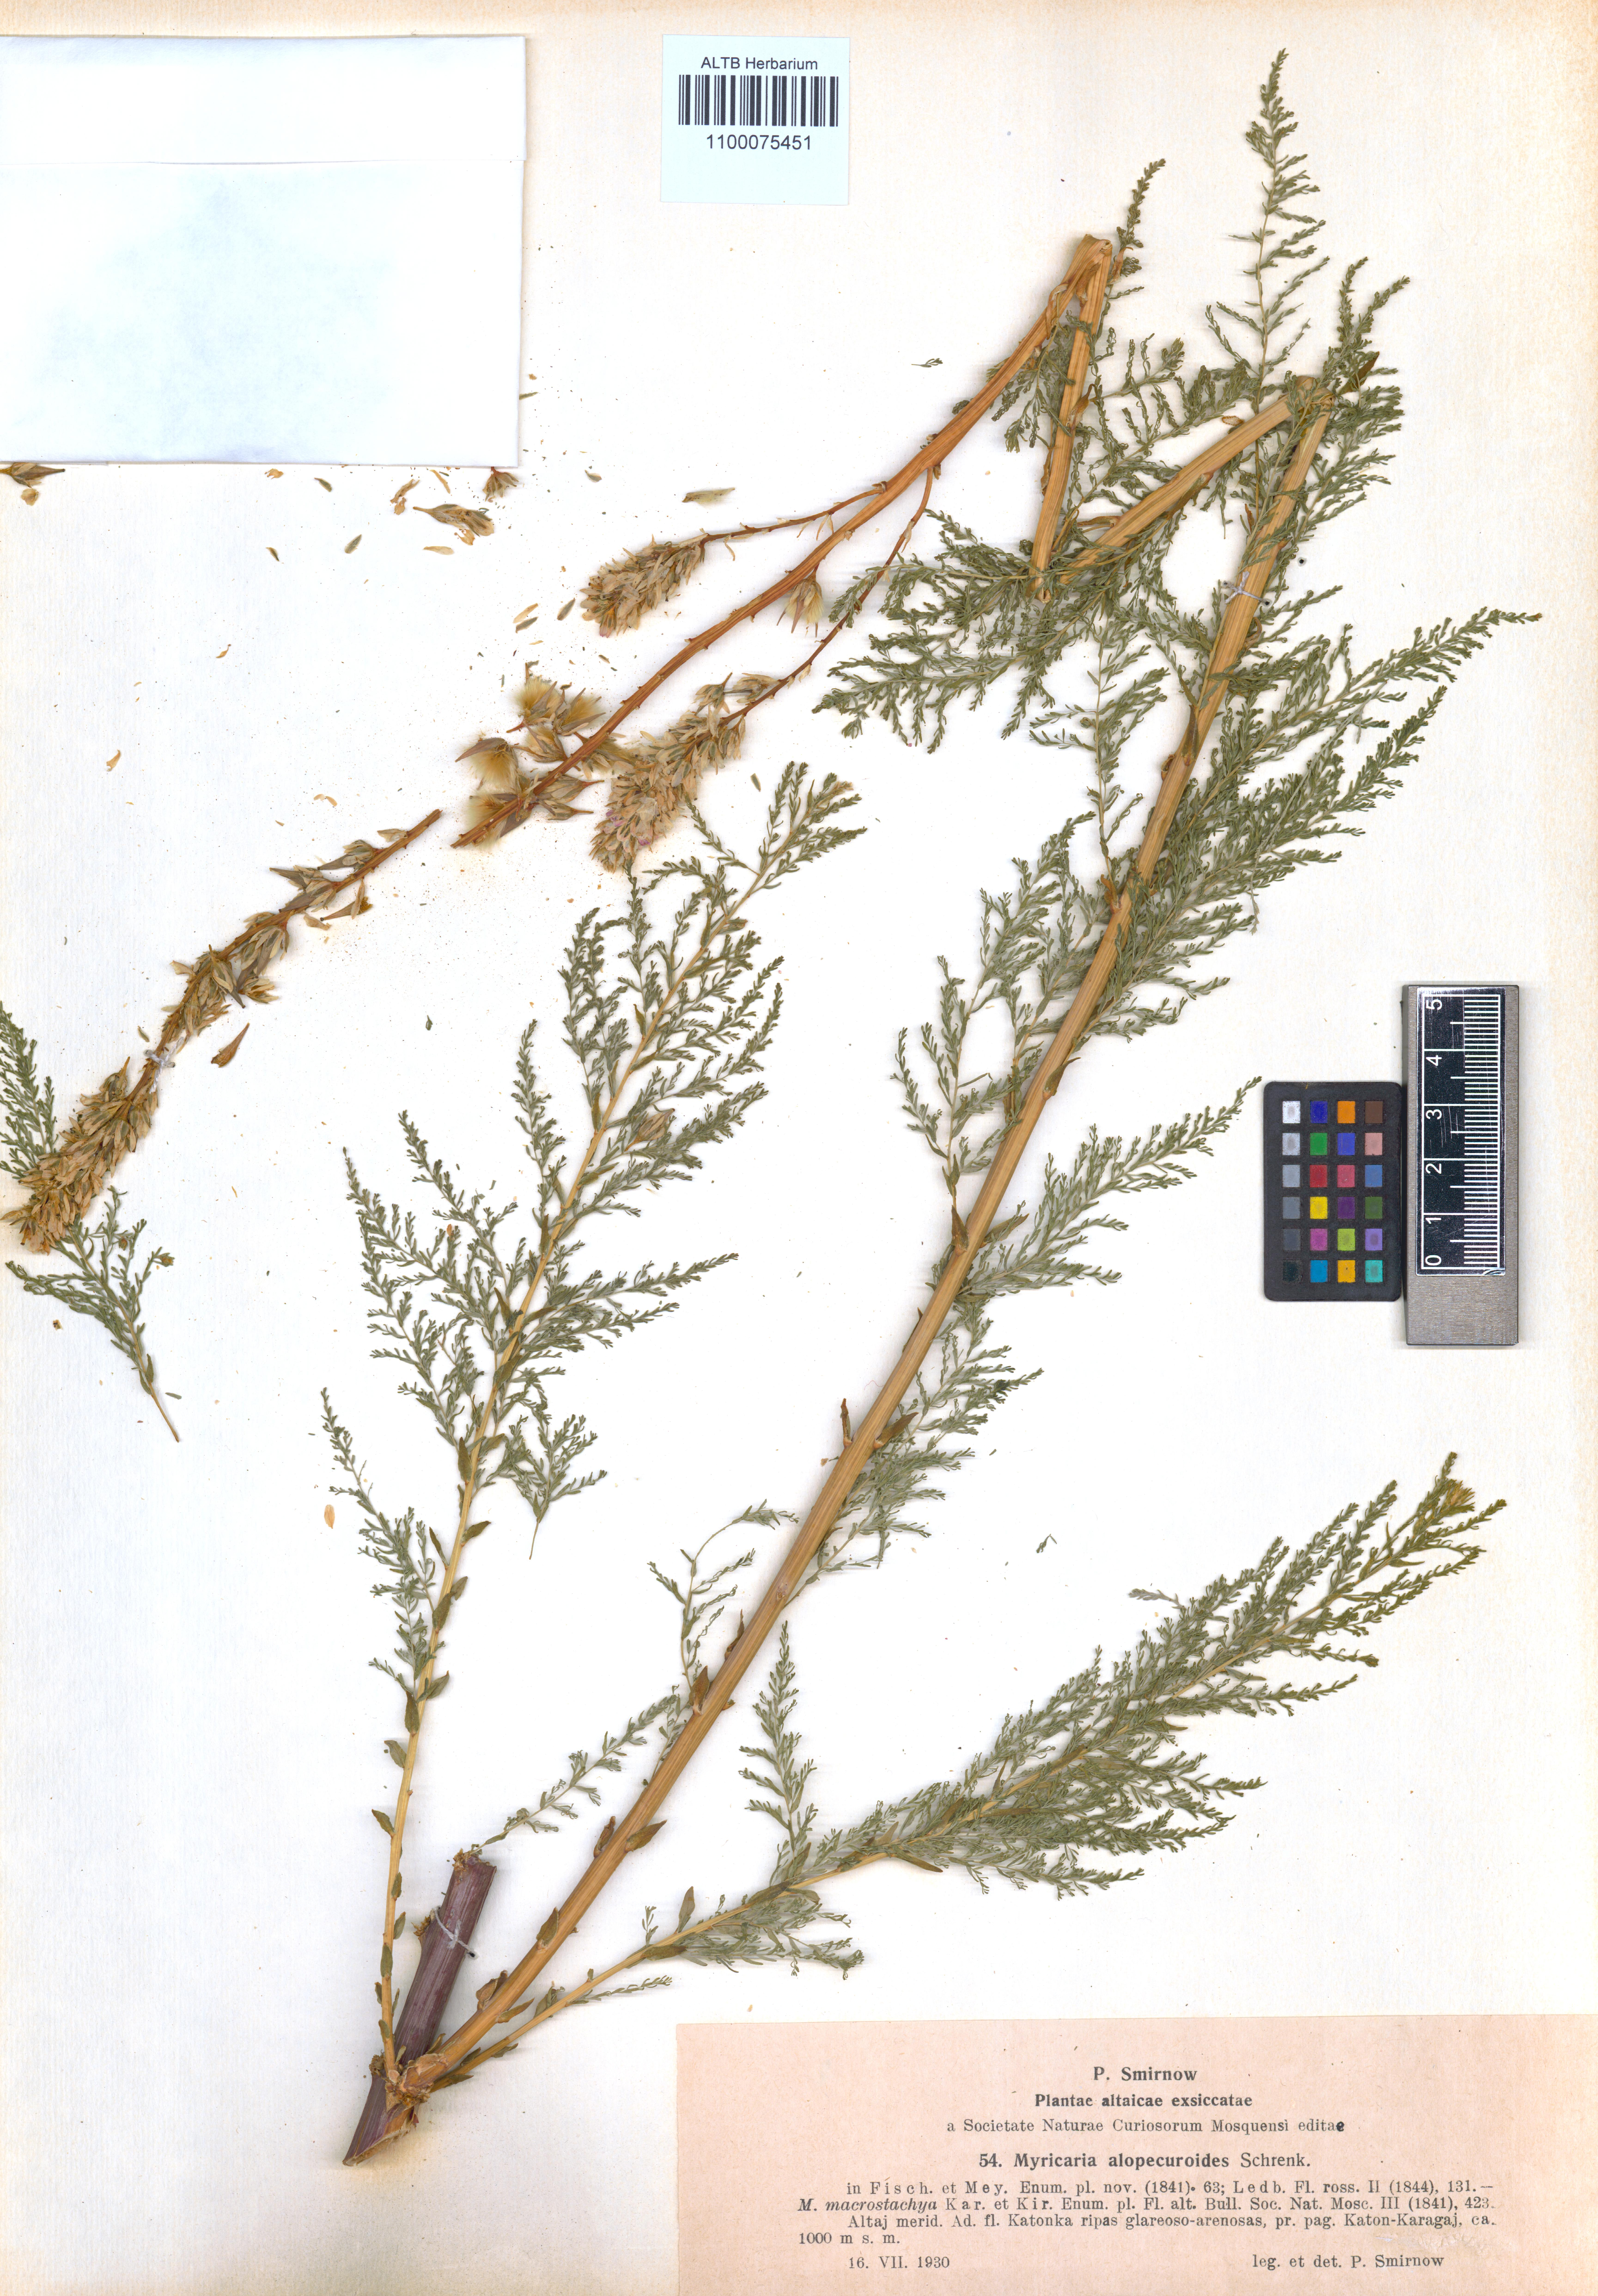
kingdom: Plantae
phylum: Tracheophyta
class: Magnoliopsida
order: Caryophyllales
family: Tamaricaceae
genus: Myricaria
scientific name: Myricaria bracteata
